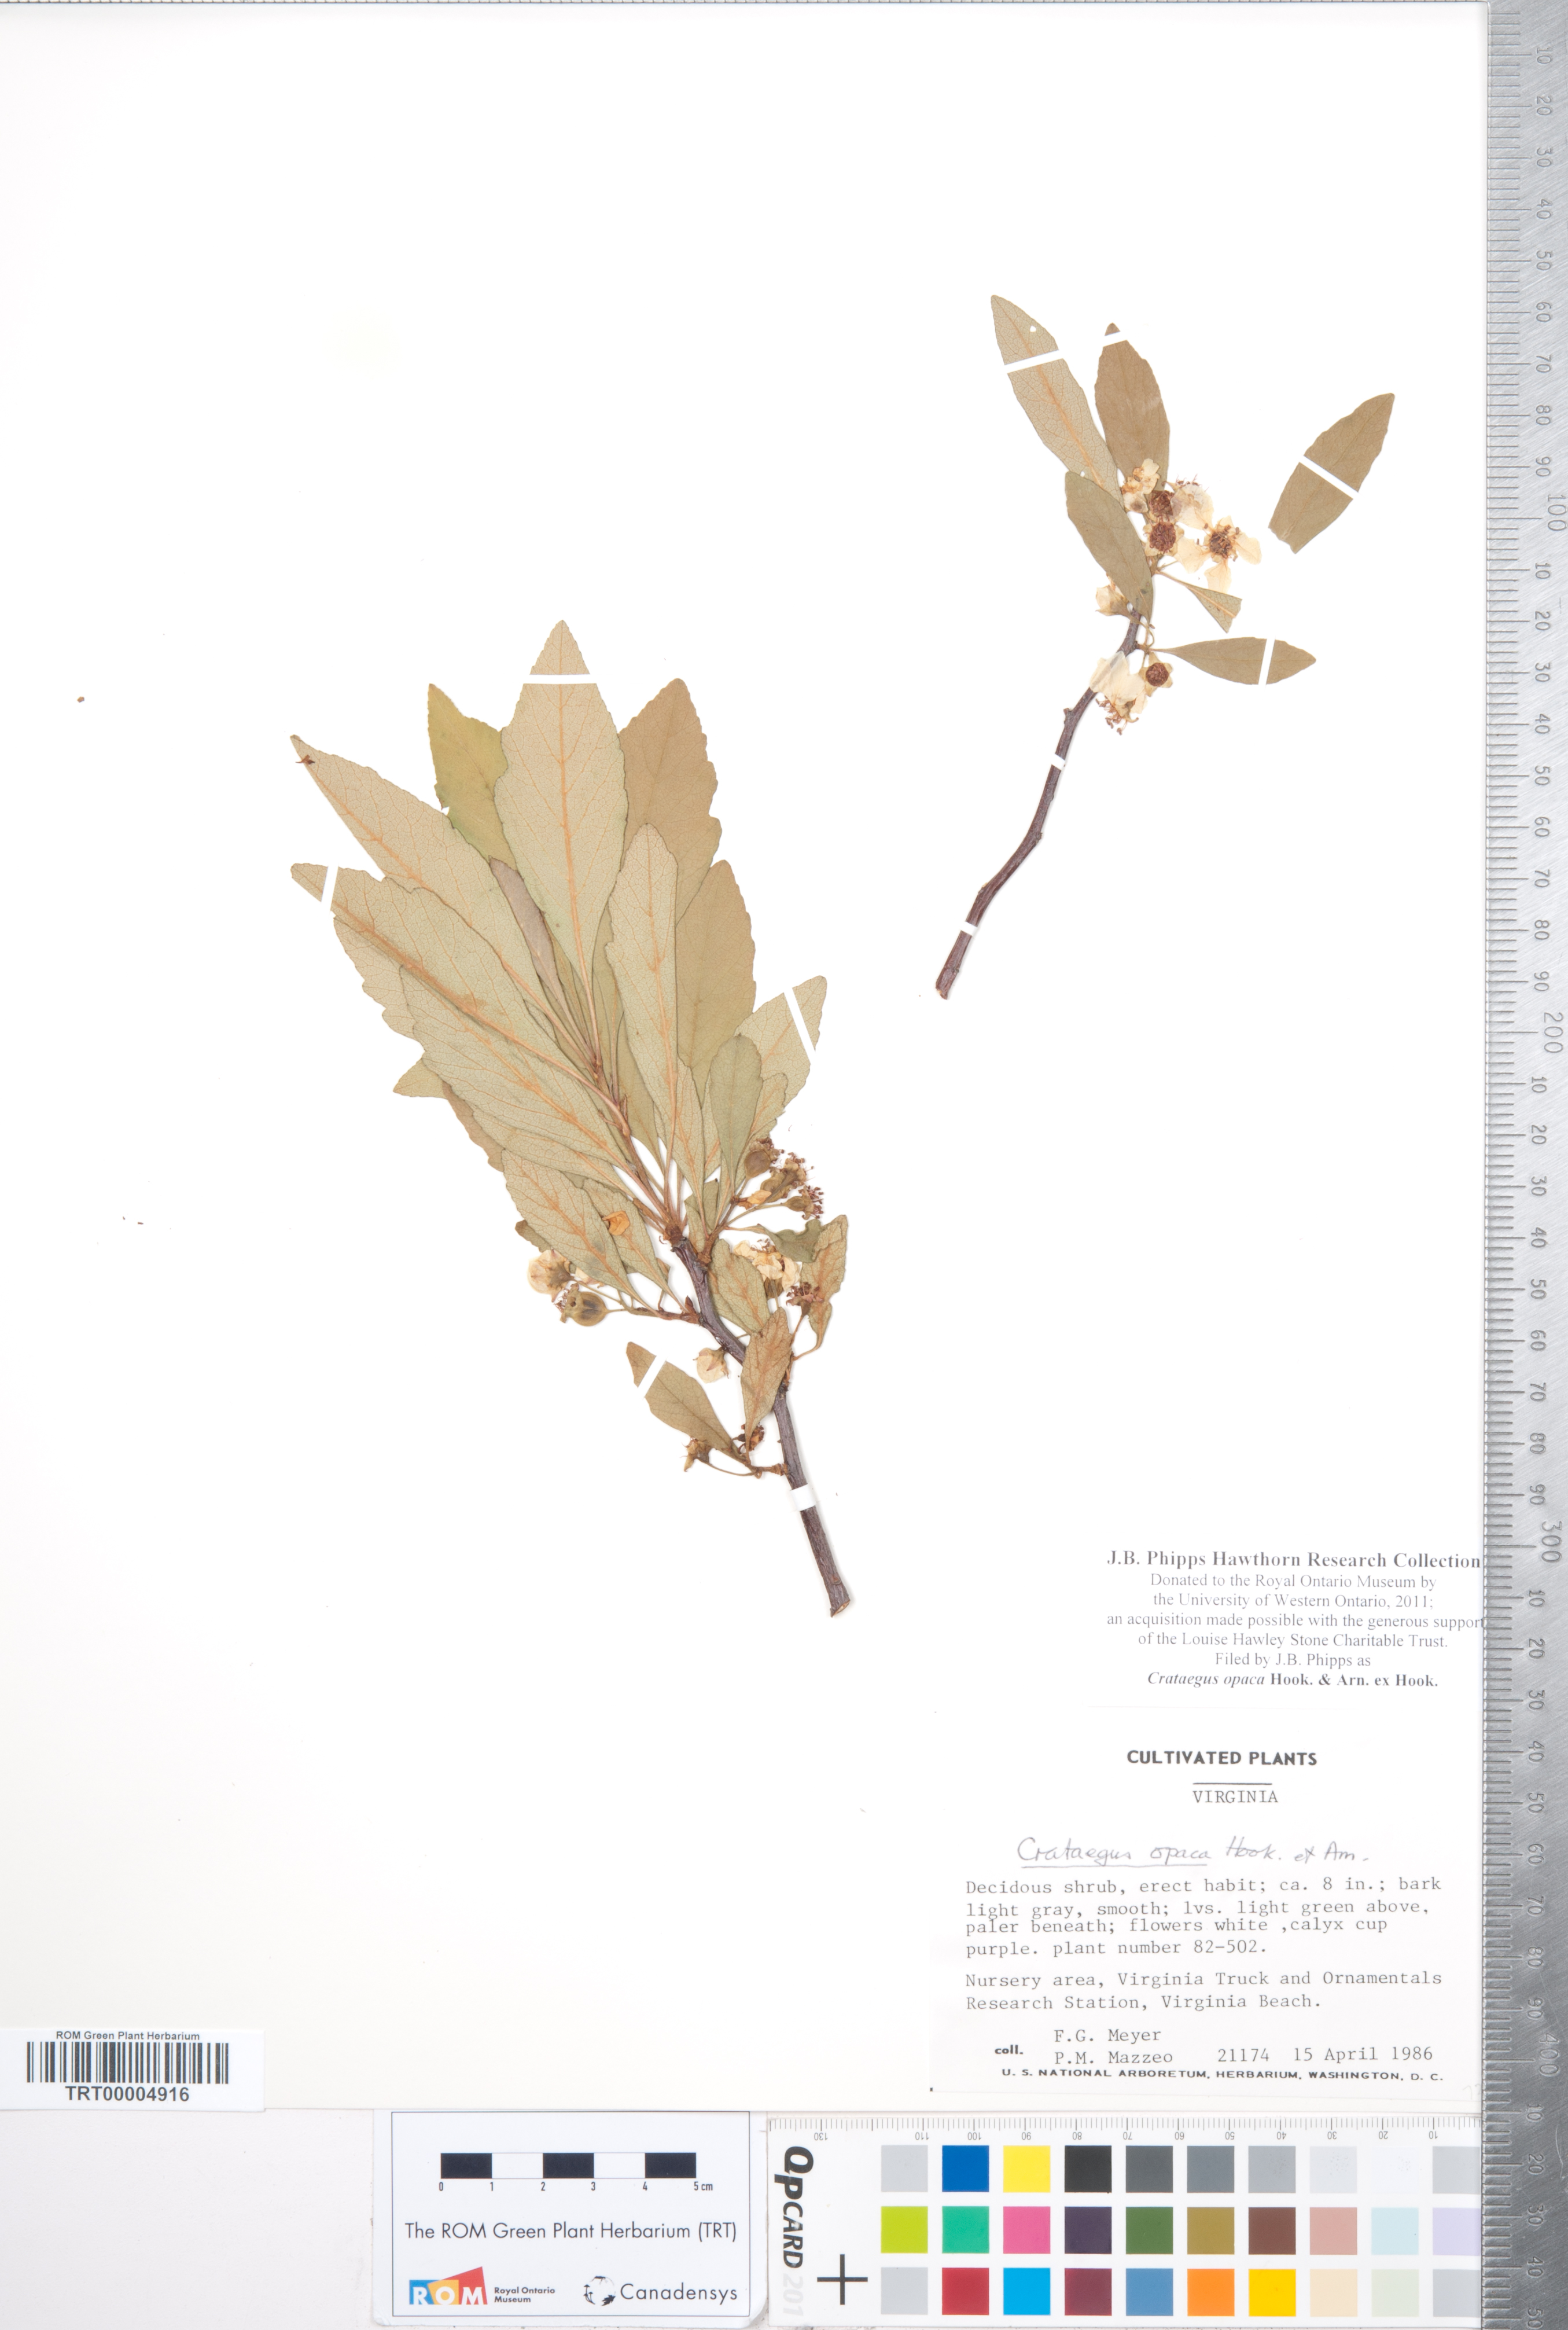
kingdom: Plantae
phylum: Tracheophyta
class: Magnoliopsida
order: Rosales
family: Rosaceae
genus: Crataegus
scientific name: Crataegus opaca
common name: Apple haw
